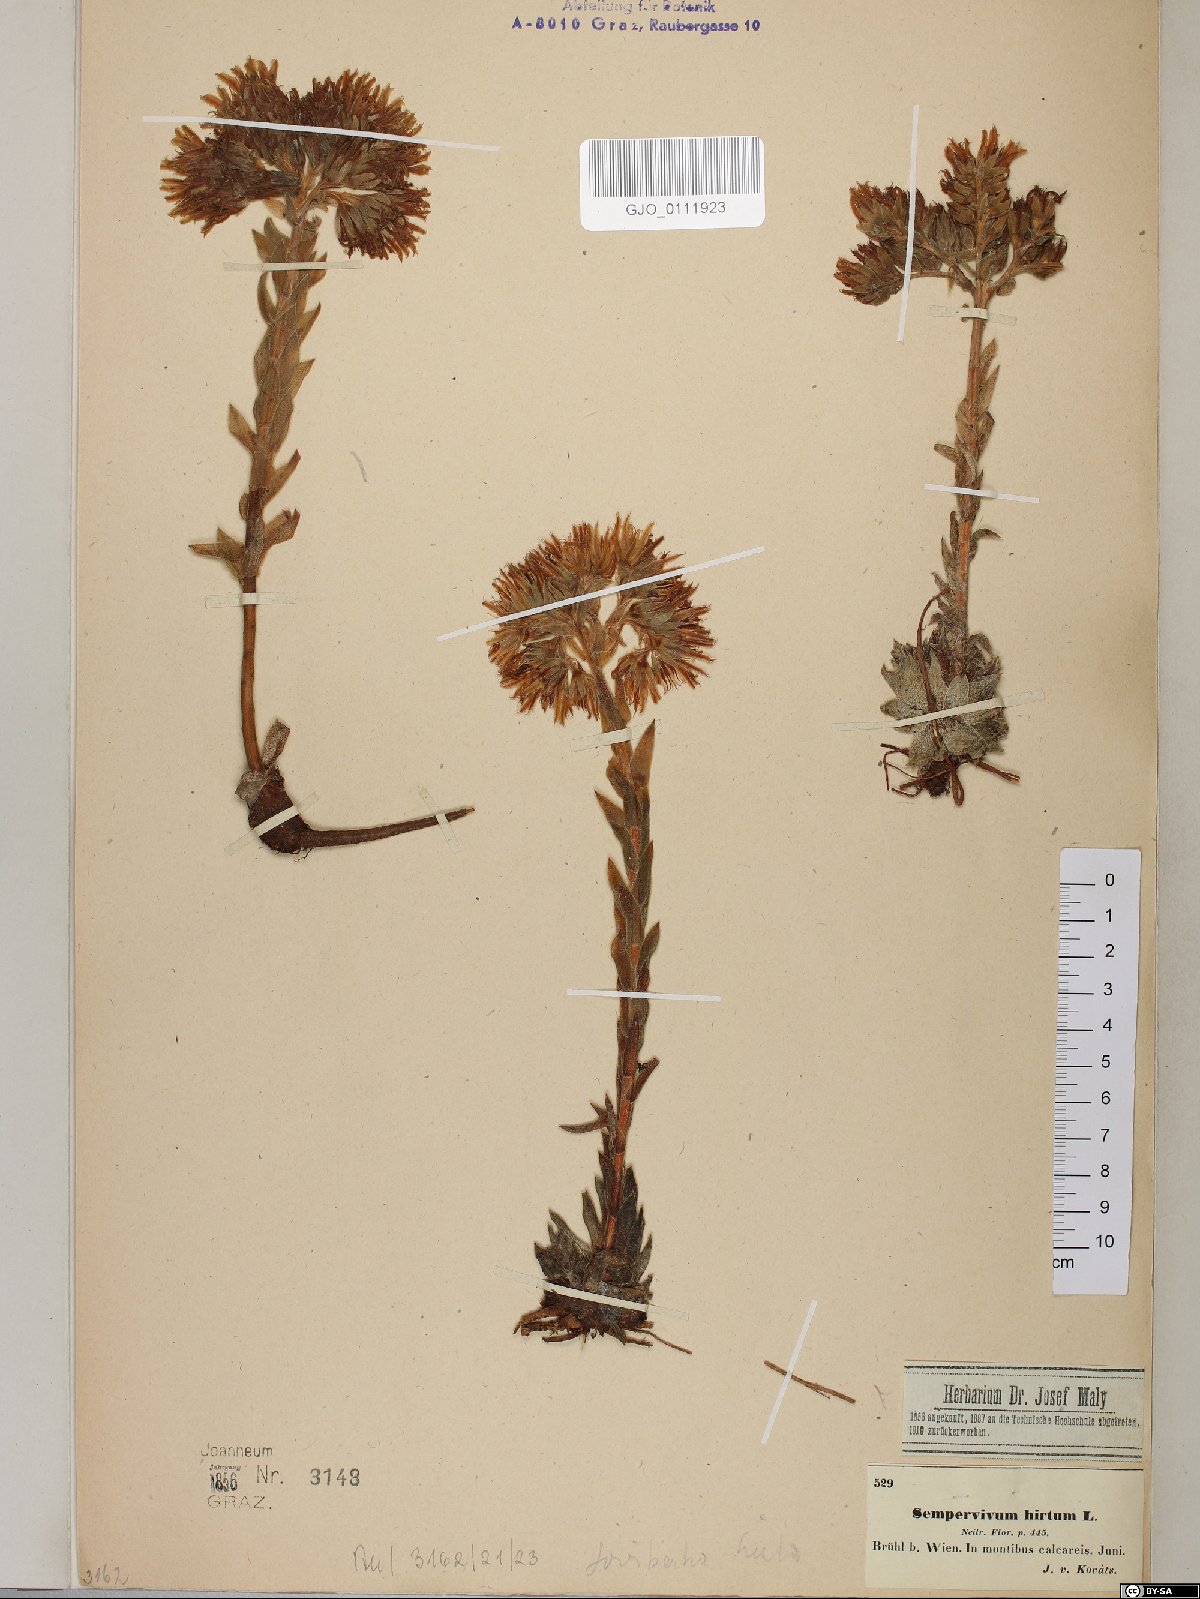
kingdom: Plantae
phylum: Tracheophyta
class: Magnoliopsida
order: Saxifragales
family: Crassulaceae
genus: Sempervivum
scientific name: Sempervivum globiferum
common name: Rolling hen-and-chicks
